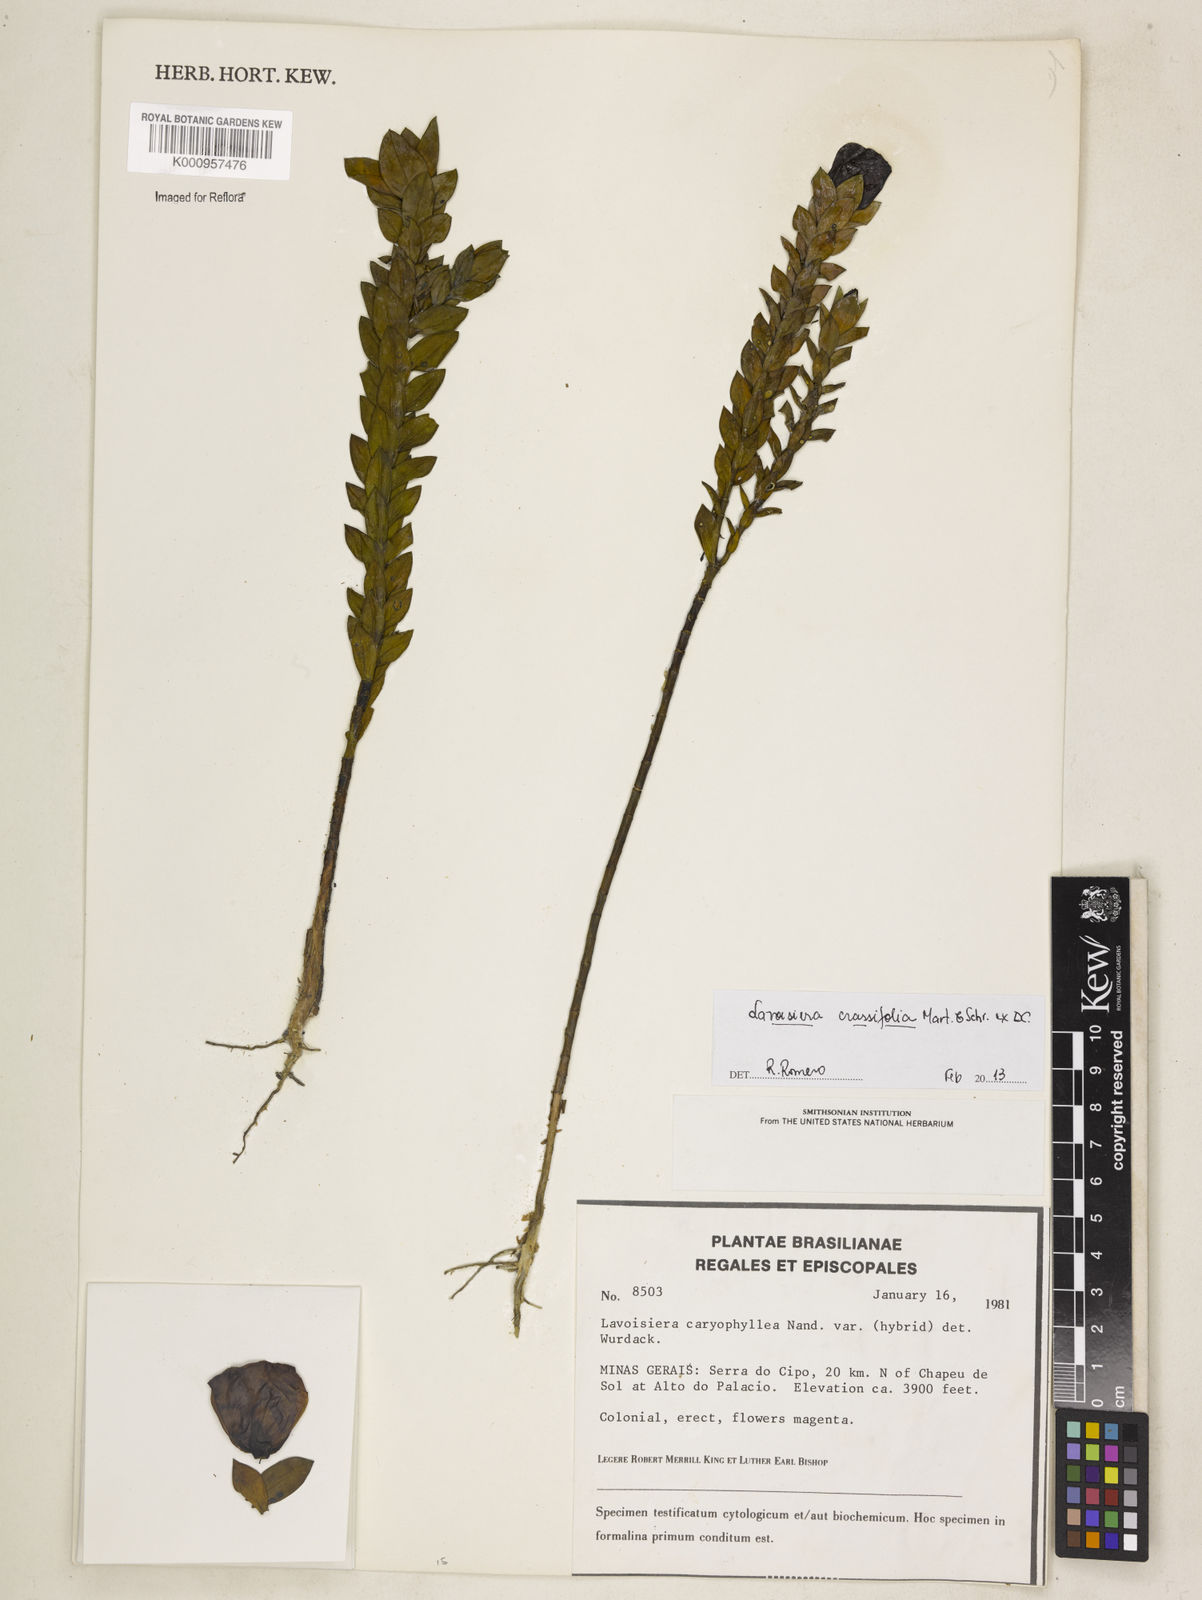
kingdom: Plantae
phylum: Tracheophyta
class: Magnoliopsida
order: Myrtales
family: Melastomataceae
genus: Microlicia
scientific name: Microlicia crassifolia
